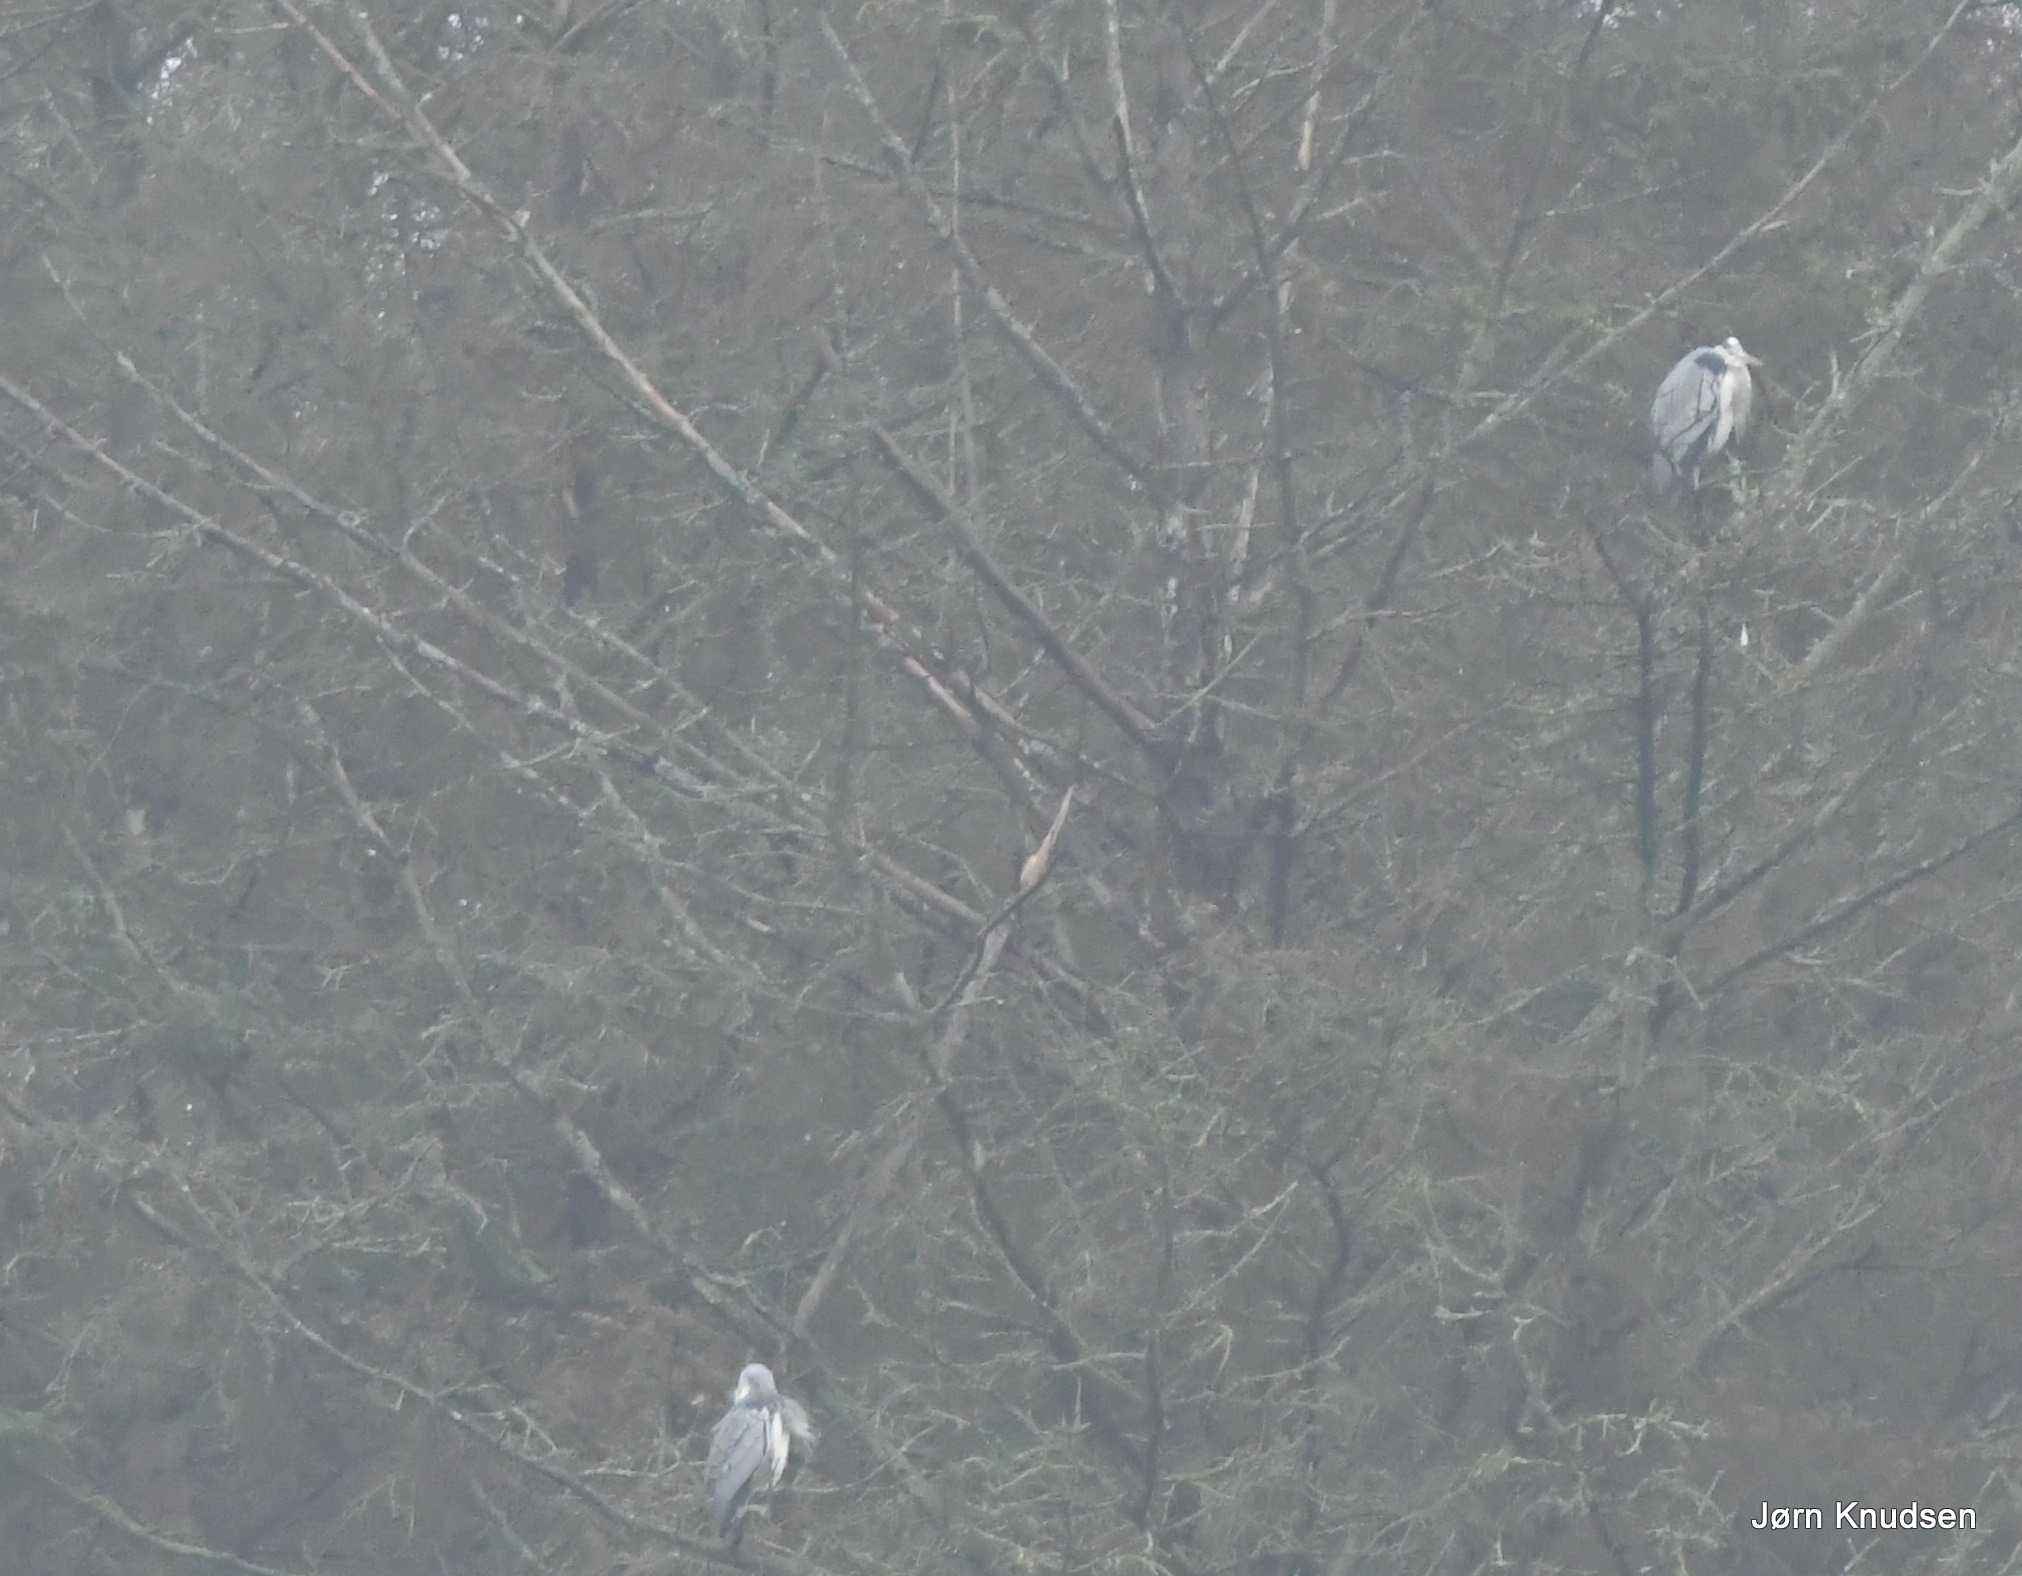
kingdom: Animalia
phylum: Chordata
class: Aves
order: Pelecaniformes
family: Ardeidae
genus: Ardea
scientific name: Ardea cinerea
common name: Fiskehejre
